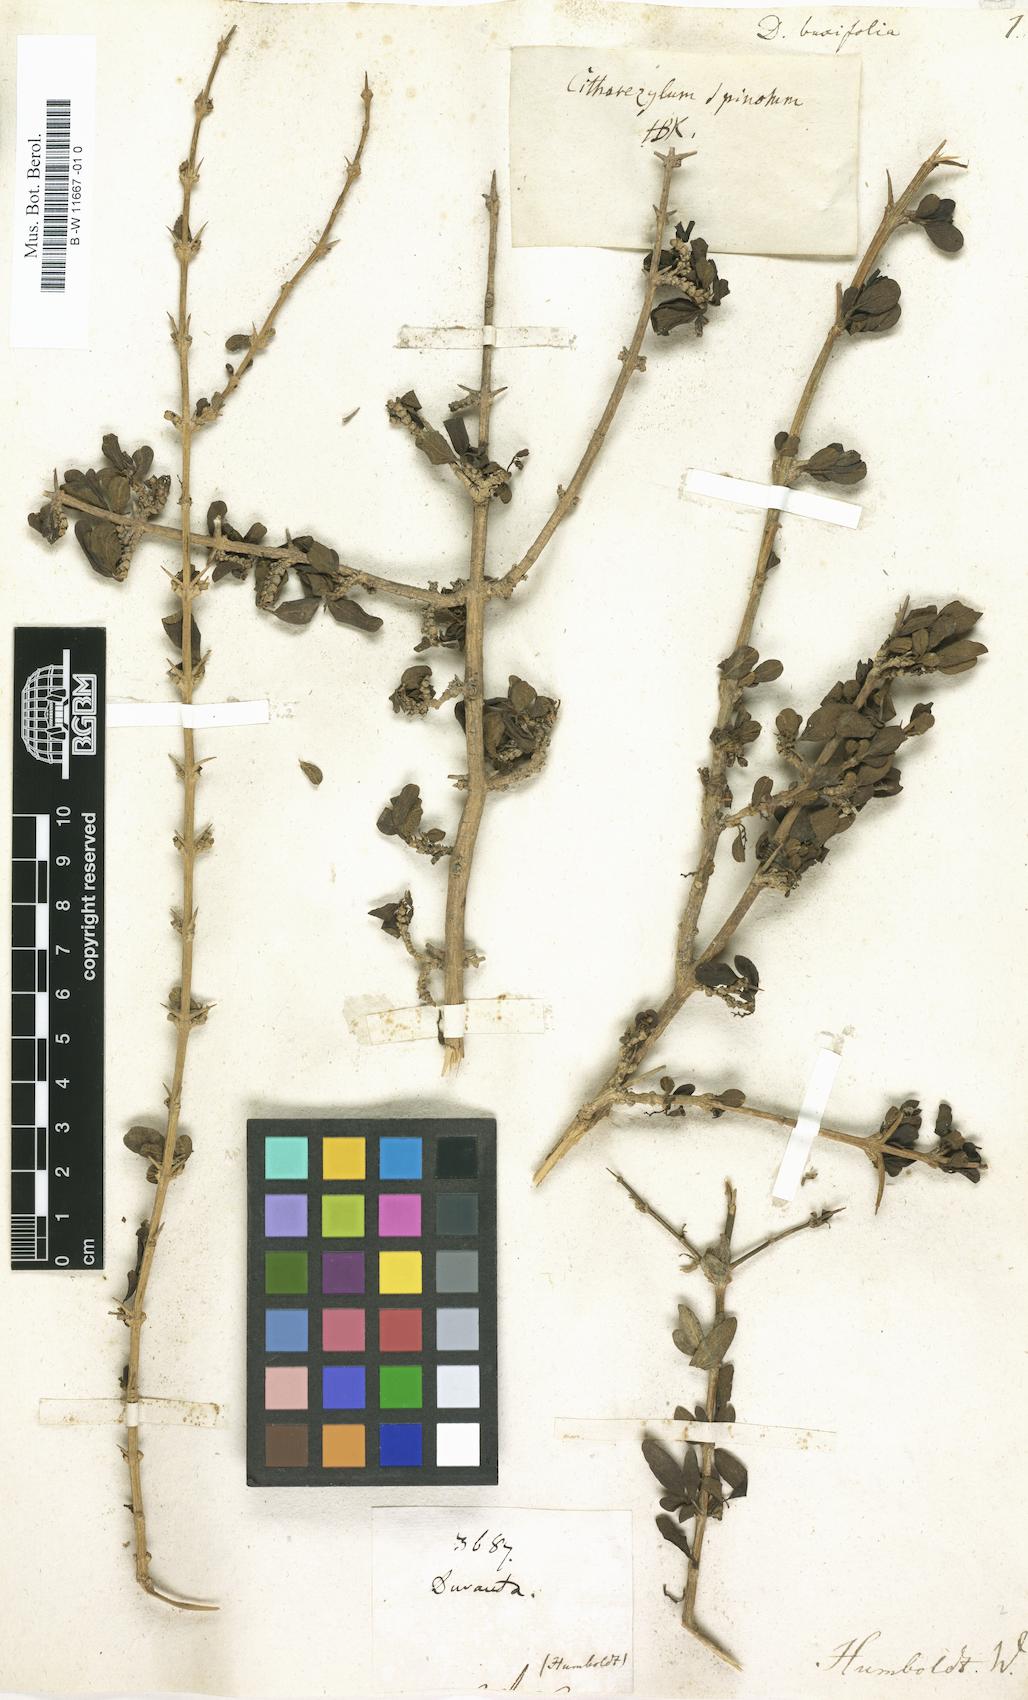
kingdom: Plantae
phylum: Tracheophyta
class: Magnoliopsida
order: Lamiales
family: Verbenaceae
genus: Duranta
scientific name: Duranta buxifolia
